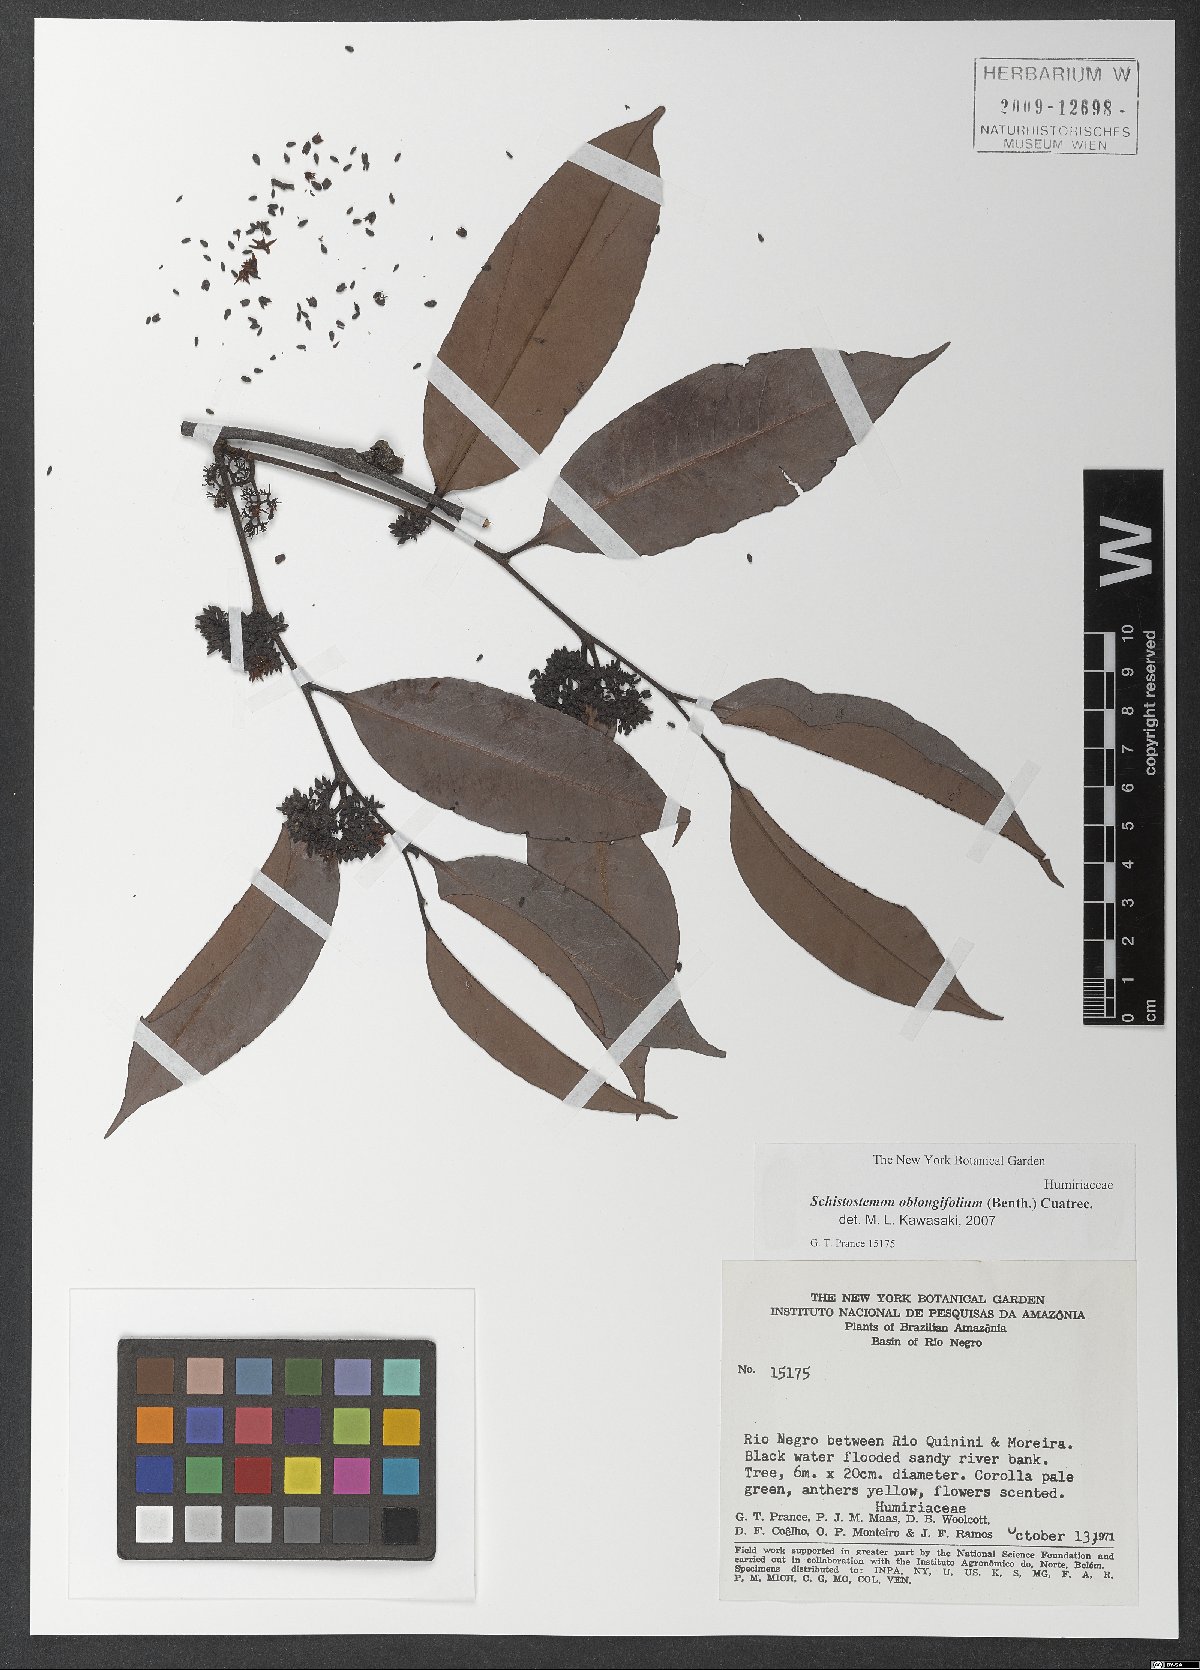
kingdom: Plantae
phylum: Tracheophyta
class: Magnoliopsida
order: Malpighiales
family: Humiriaceae
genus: Schistostemon
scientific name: Schistostemon oblongifolium
